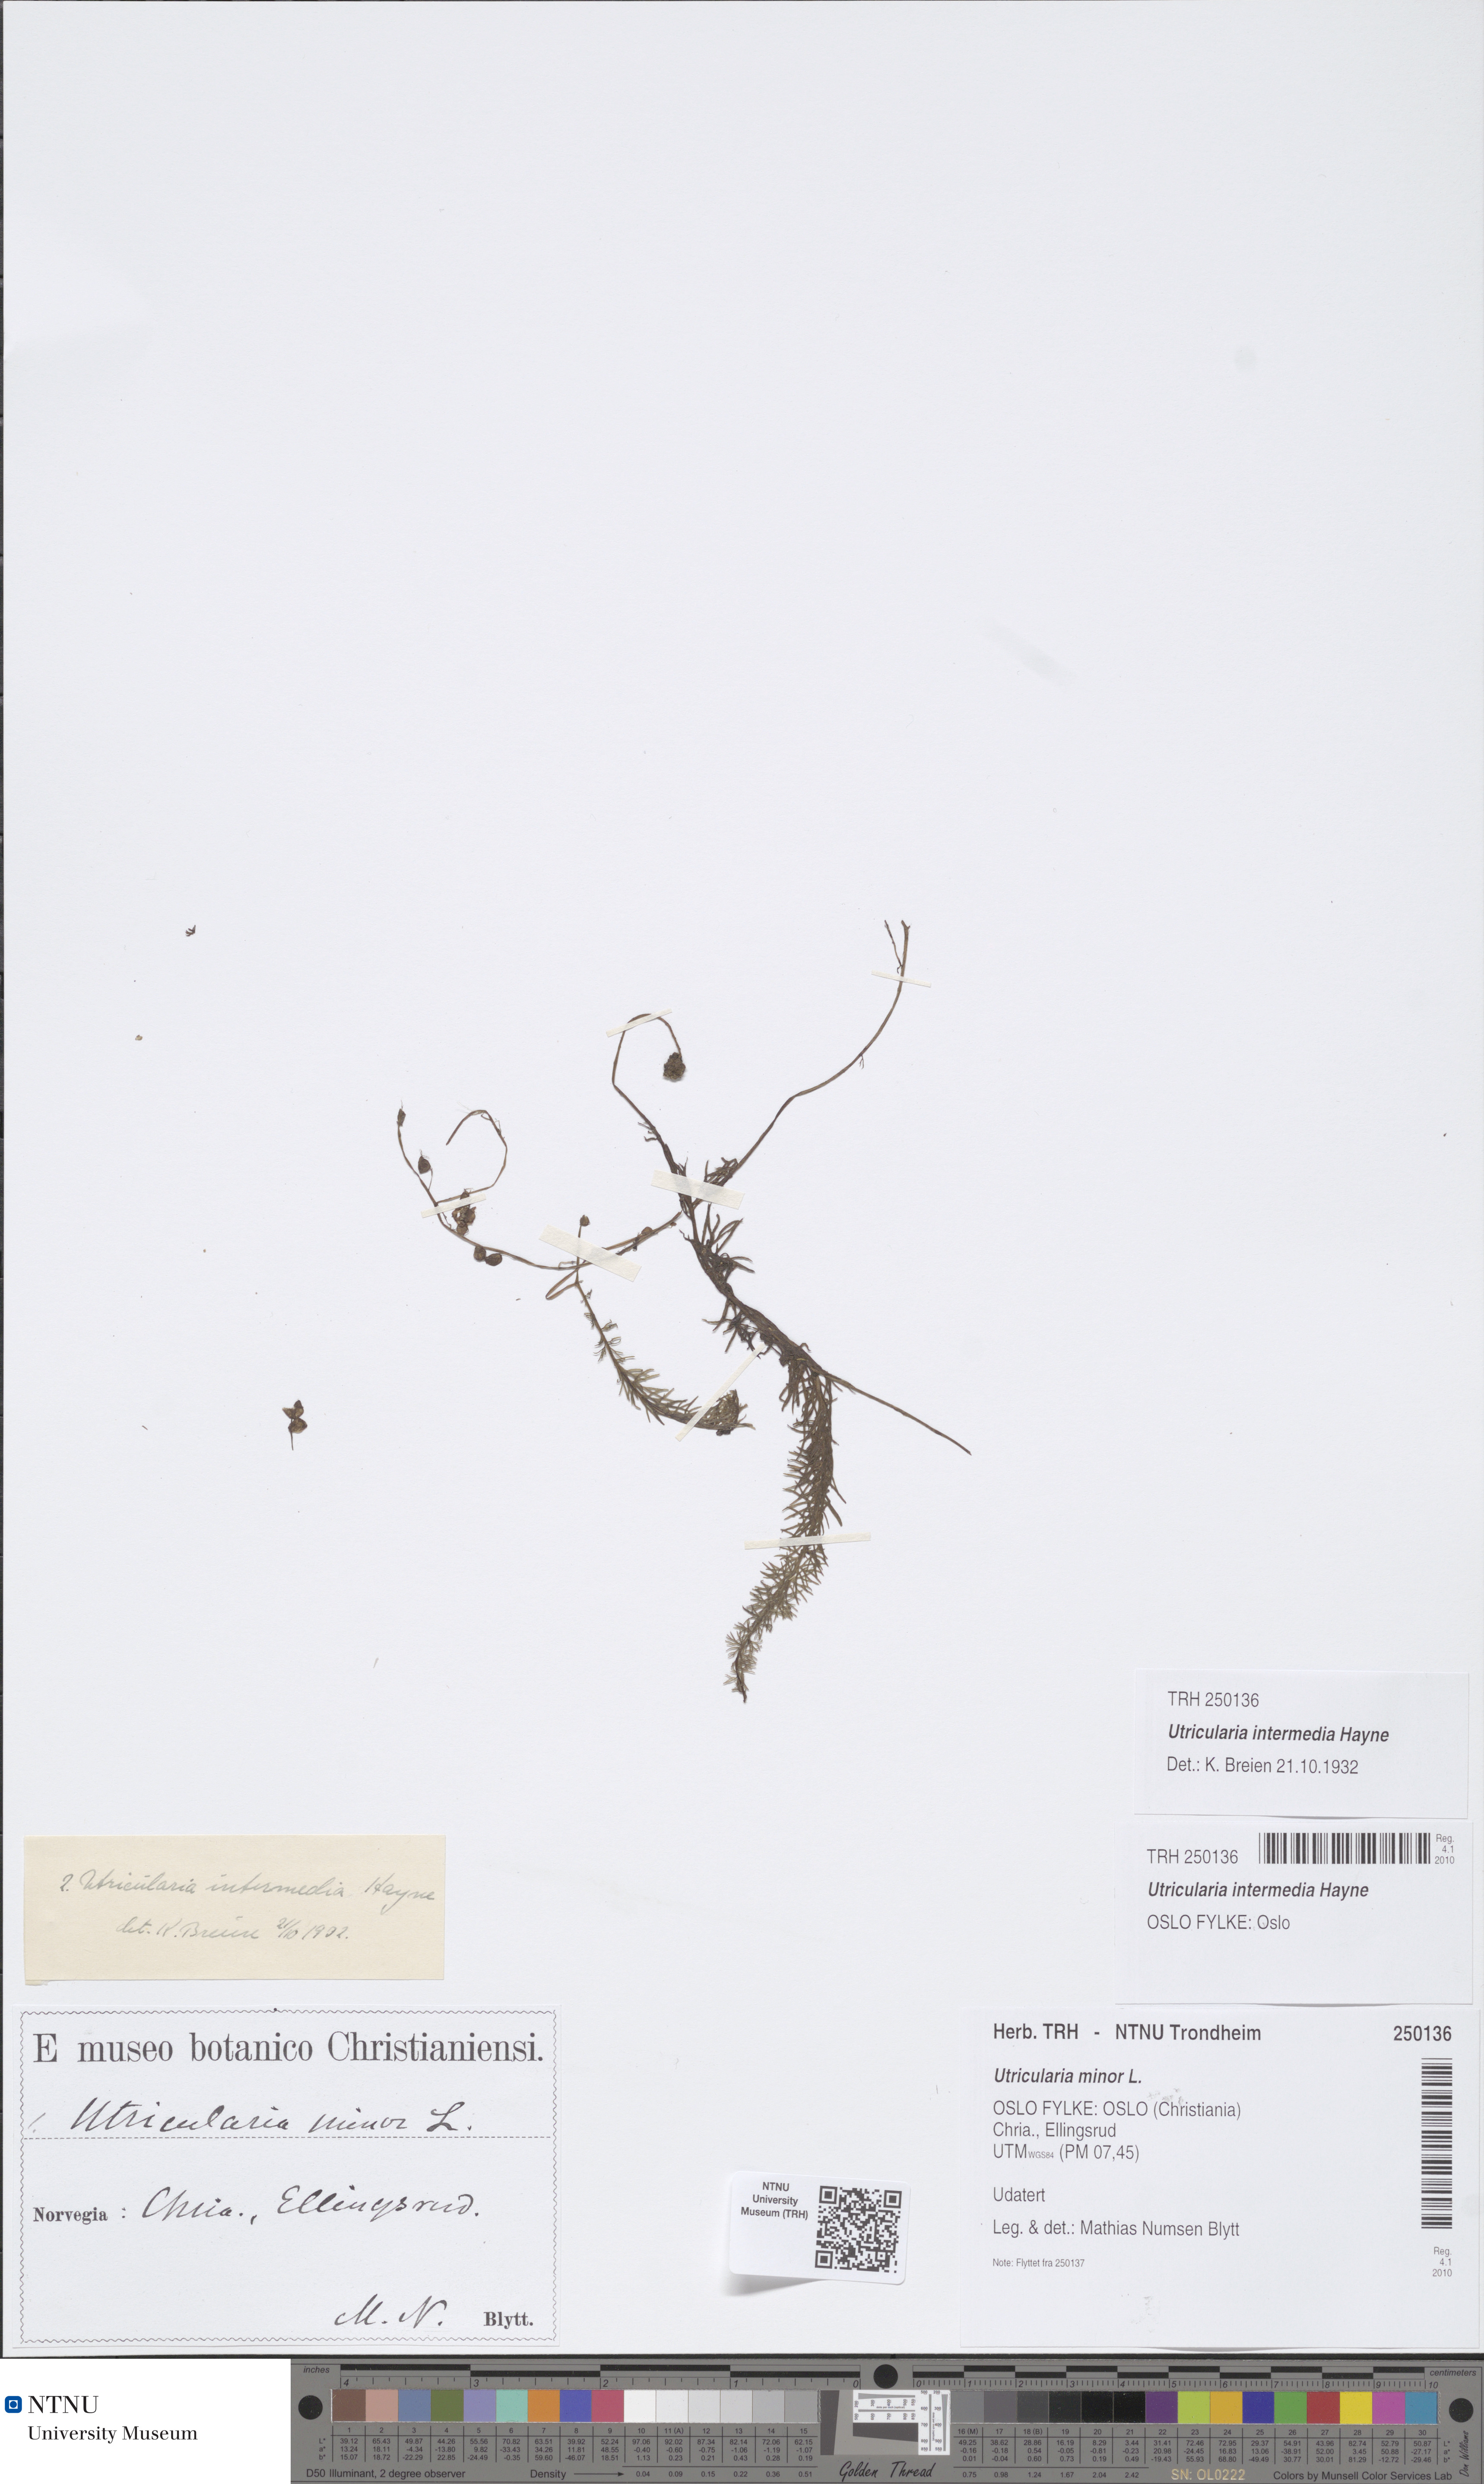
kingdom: Plantae
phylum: Tracheophyta
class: Magnoliopsida
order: Lamiales
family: Lentibulariaceae
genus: Utricularia
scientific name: Utricularia intermedia
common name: Intermediate bladderwort
